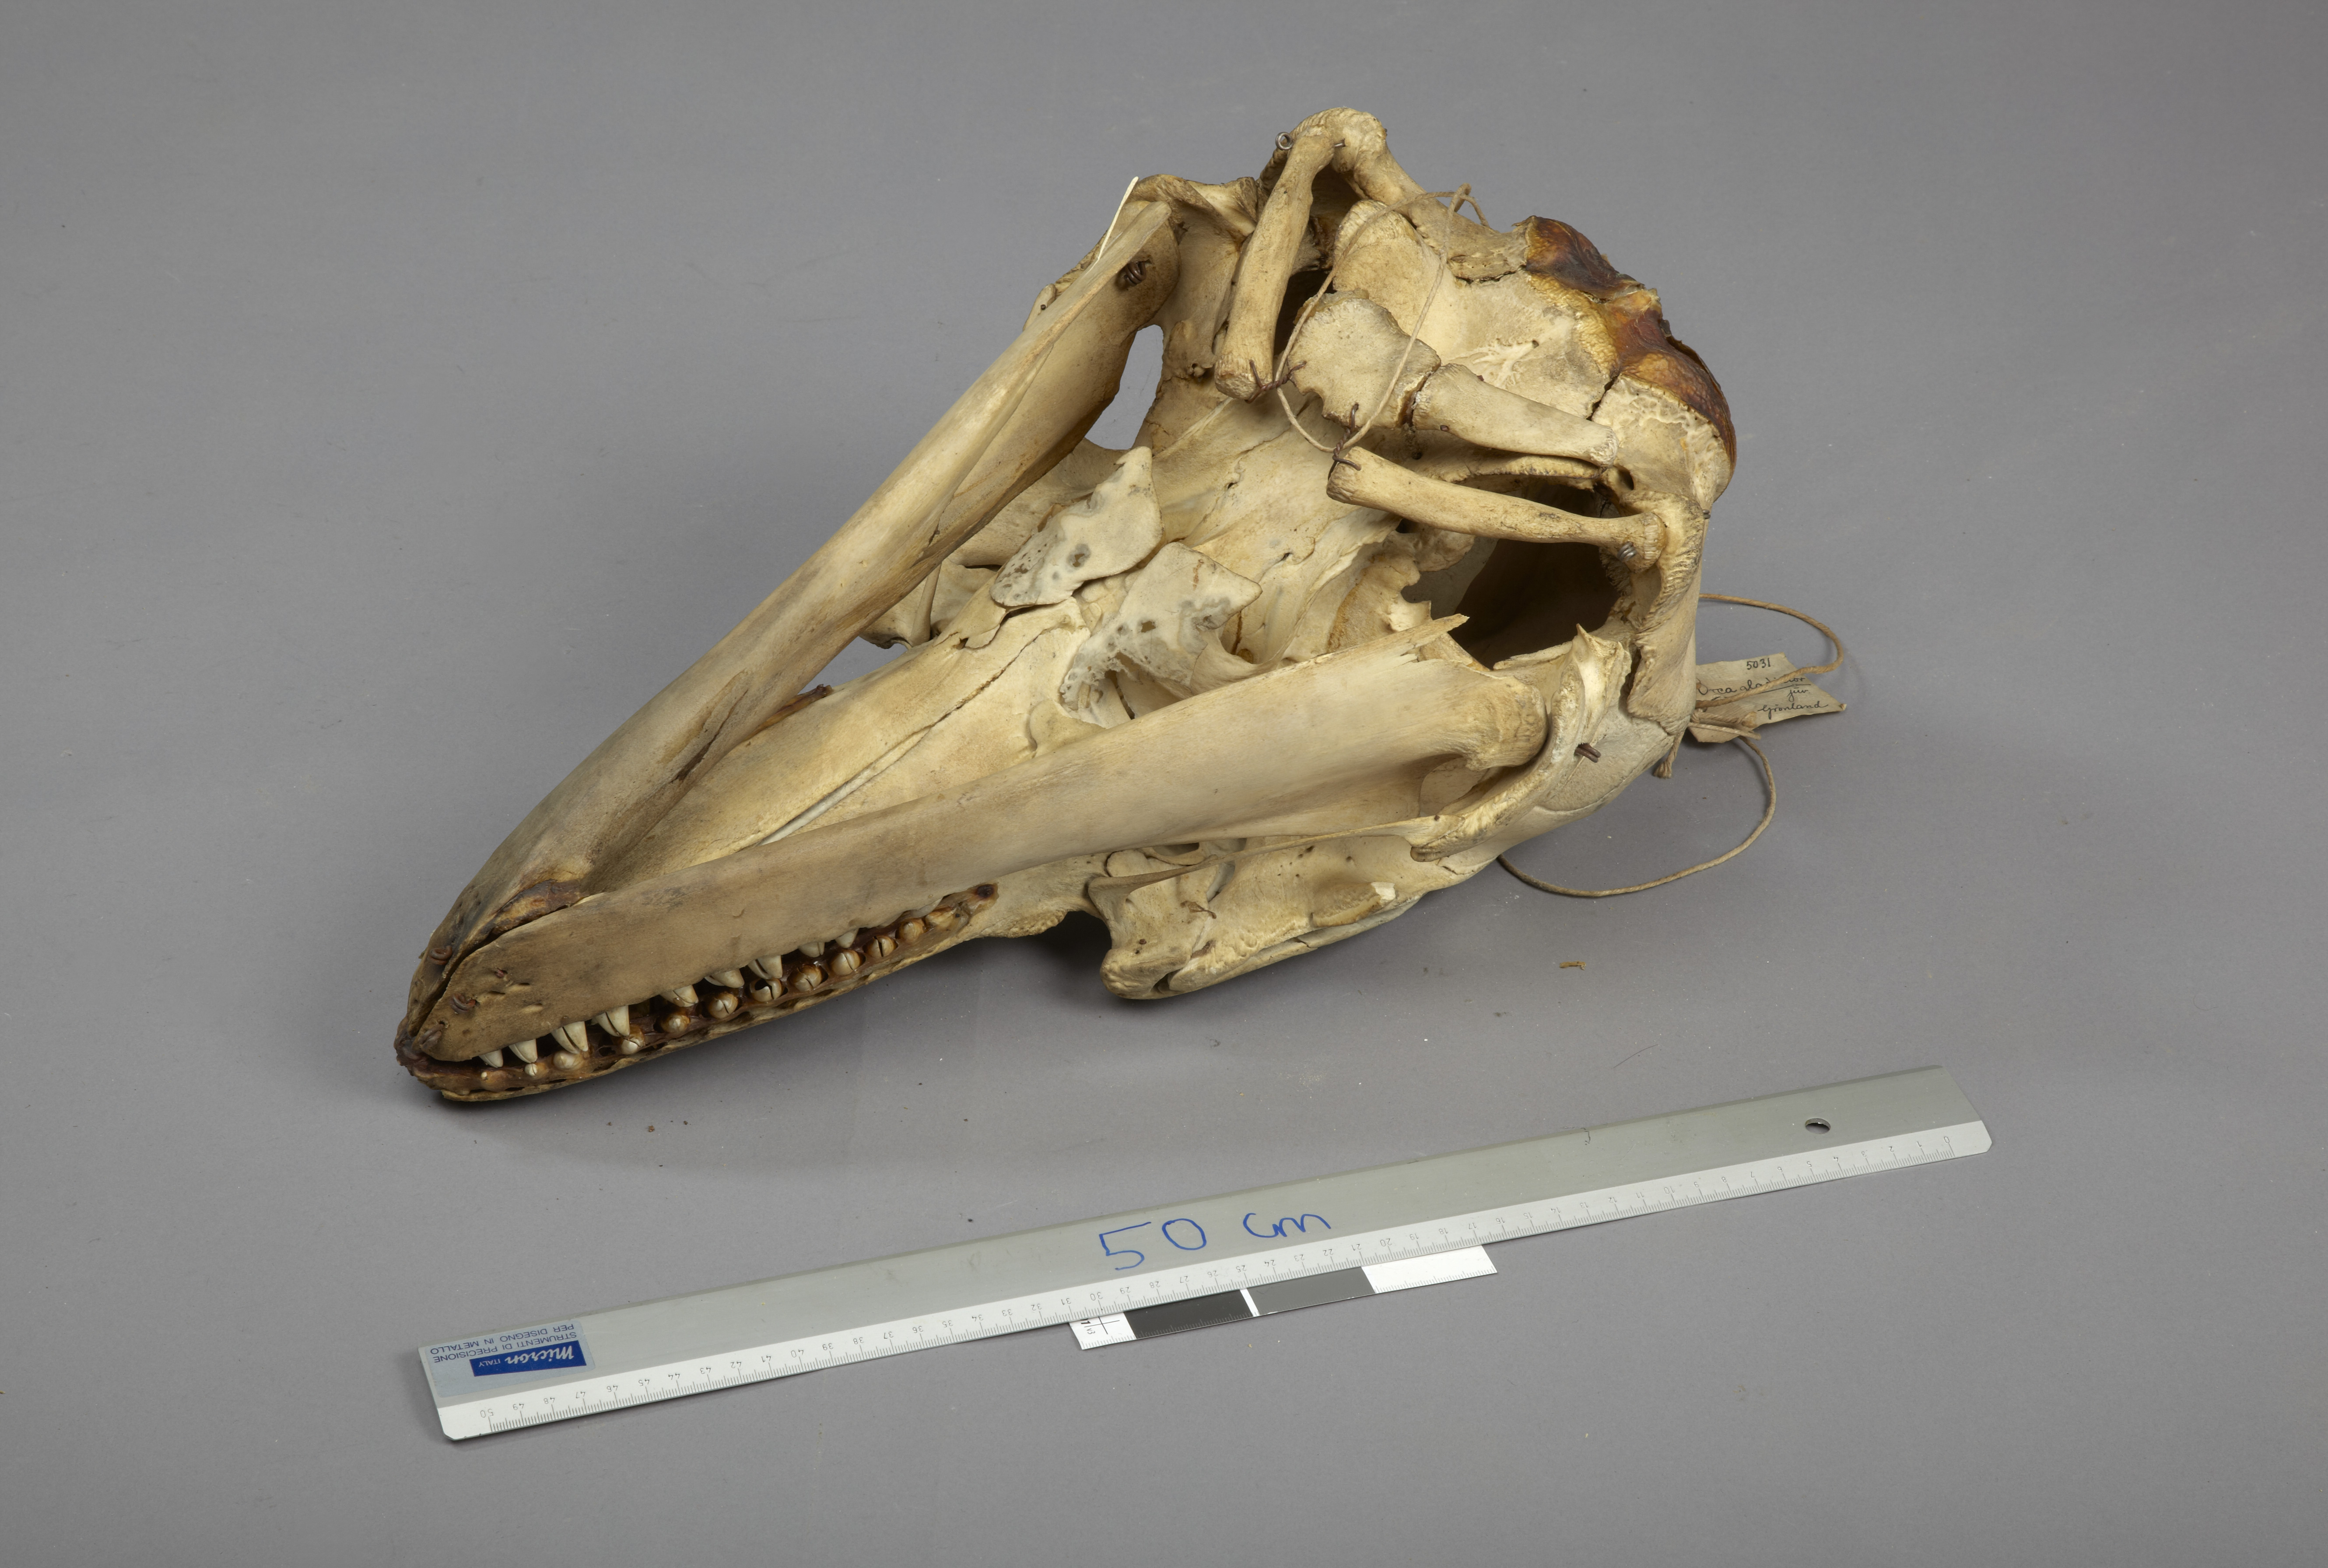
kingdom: Animalia
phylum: Chordata
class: Mammalia
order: Cetacea
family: Delphinidae
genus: Orcinus
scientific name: Orcinus orca
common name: Killer whale
